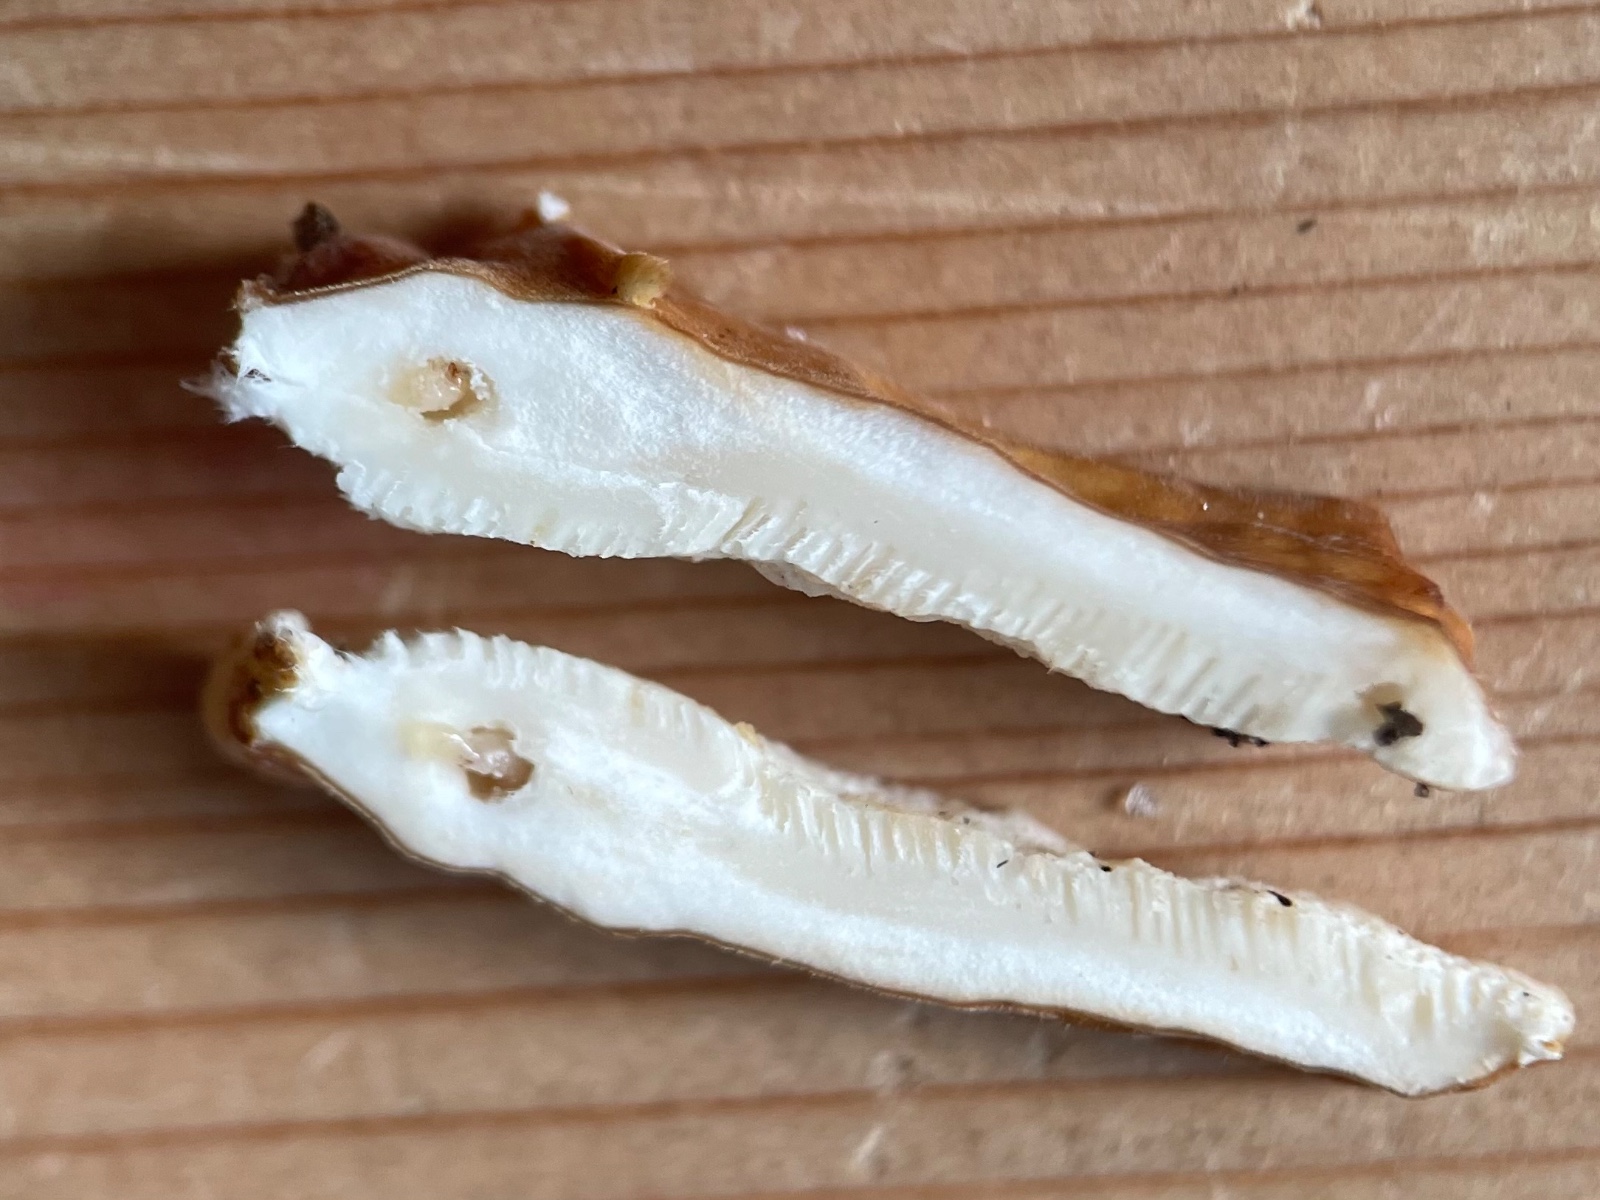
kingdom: Fungi
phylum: Basidiomycota
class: Agaricomycetes
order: Polyporales
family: Polyporaceae
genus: Trametes
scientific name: Trametes ochracea
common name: bæltet læderporesvamp
